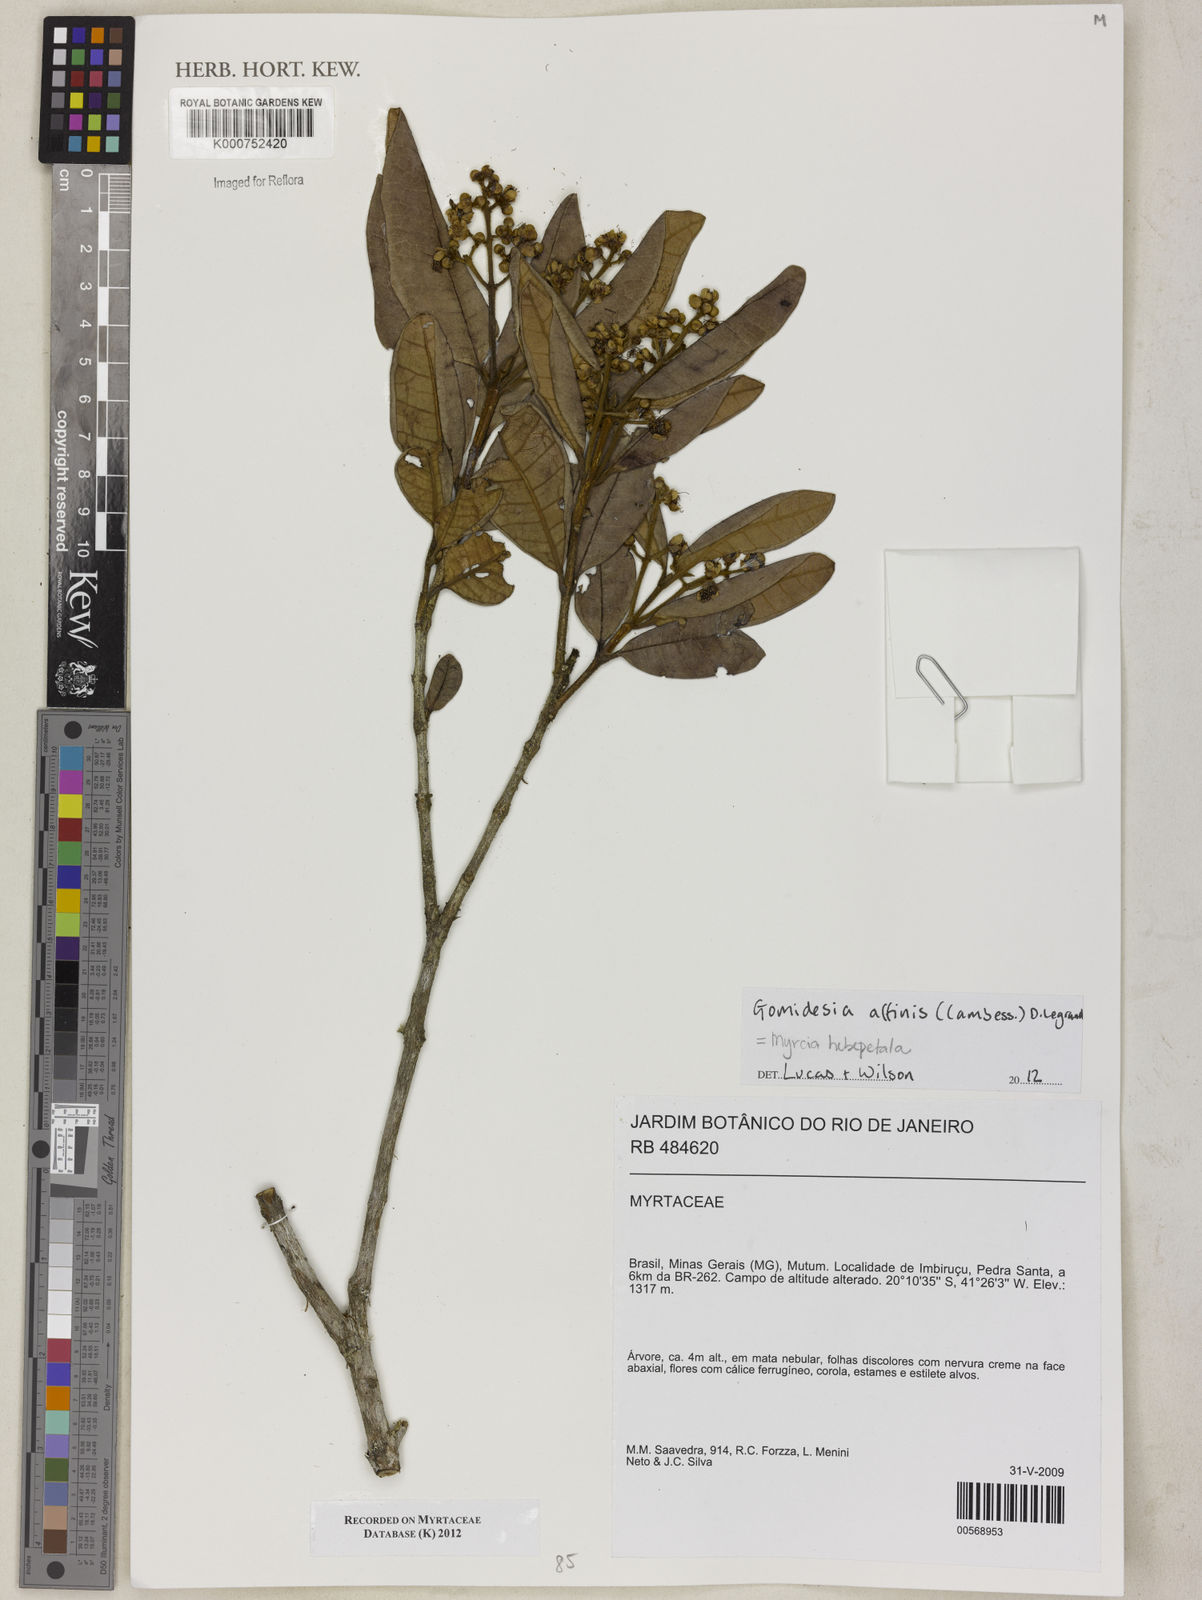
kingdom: Plantae
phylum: Tracheophyta
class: Magnoliopsida
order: Myrtales
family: Myrtaceae
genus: Myrcia
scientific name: Myrcia
